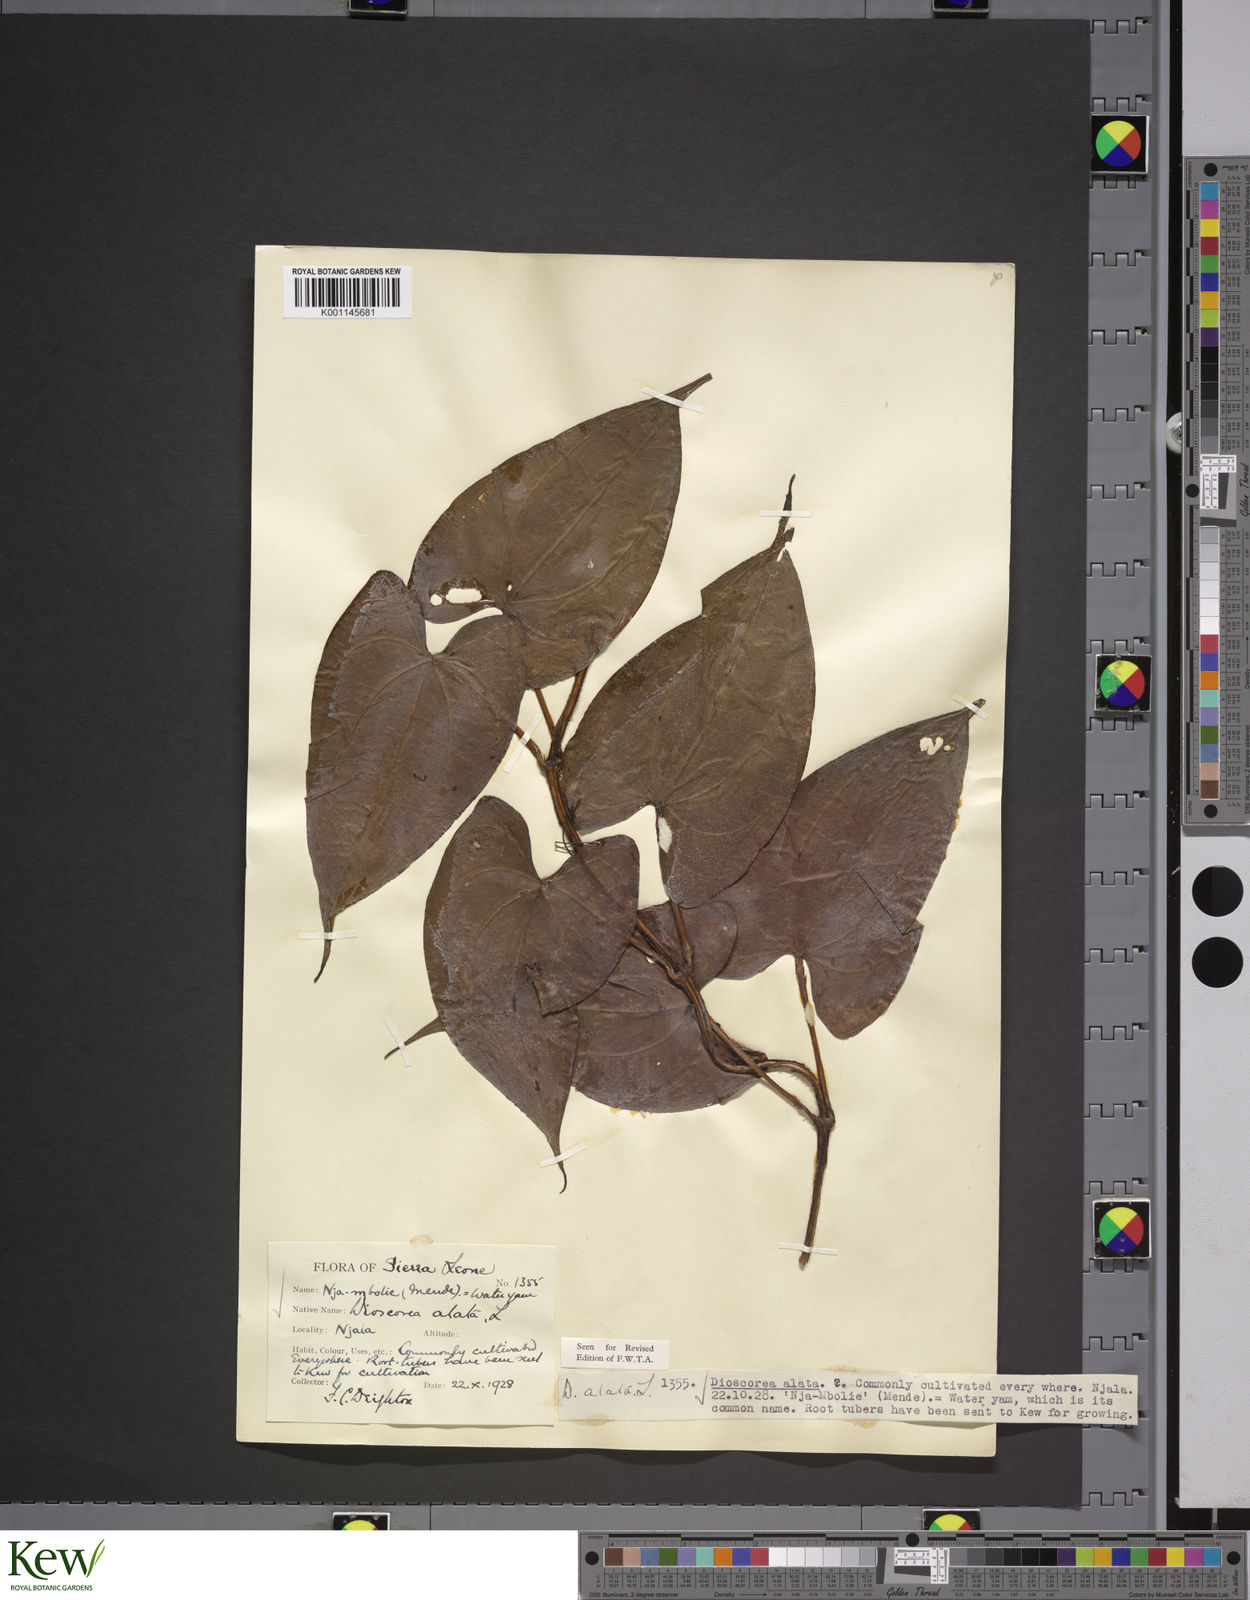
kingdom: Plantae
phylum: Tracheophyta
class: Liliopsida
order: Dioscoreales
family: Dioscoreaceae
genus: Dioscorea
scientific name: Dioscorea alata
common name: Water yam
